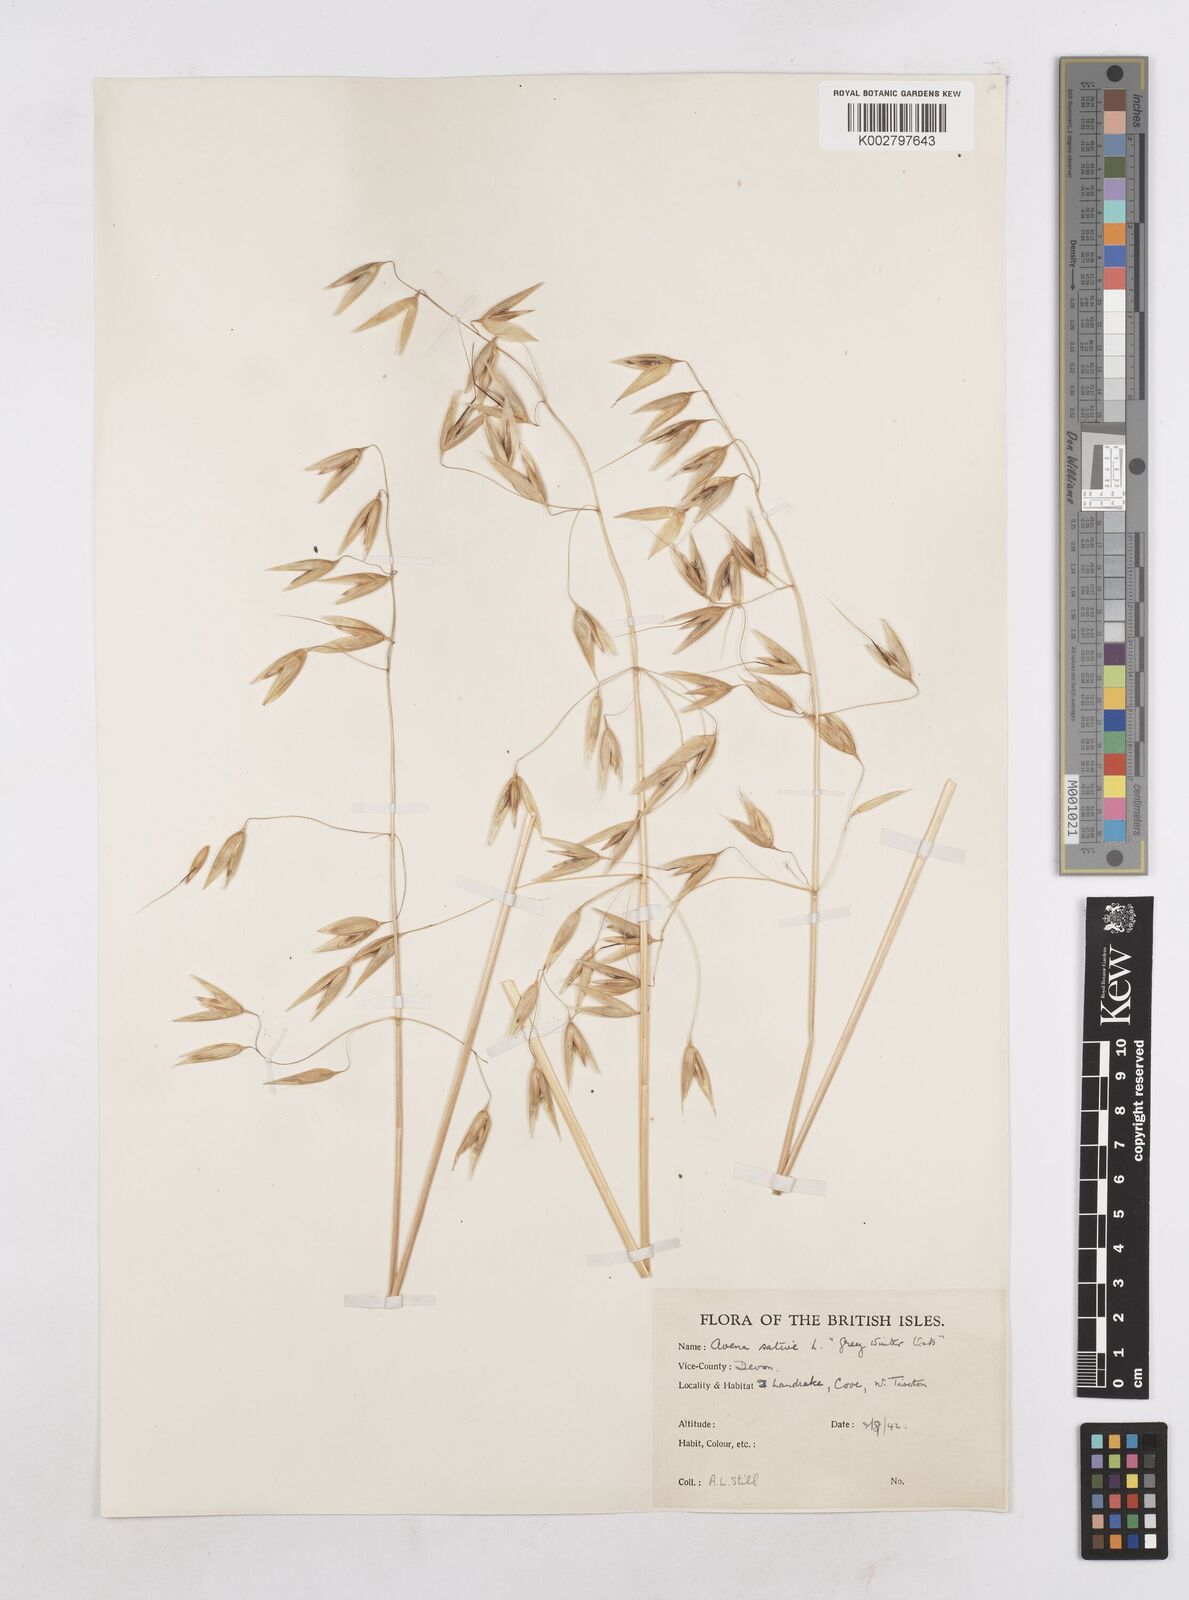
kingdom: Plantae
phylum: Tracheophyta
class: Liliopsida
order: Poales
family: Poaceae
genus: Avena
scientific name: Avena byzantina
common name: Algerian oat
